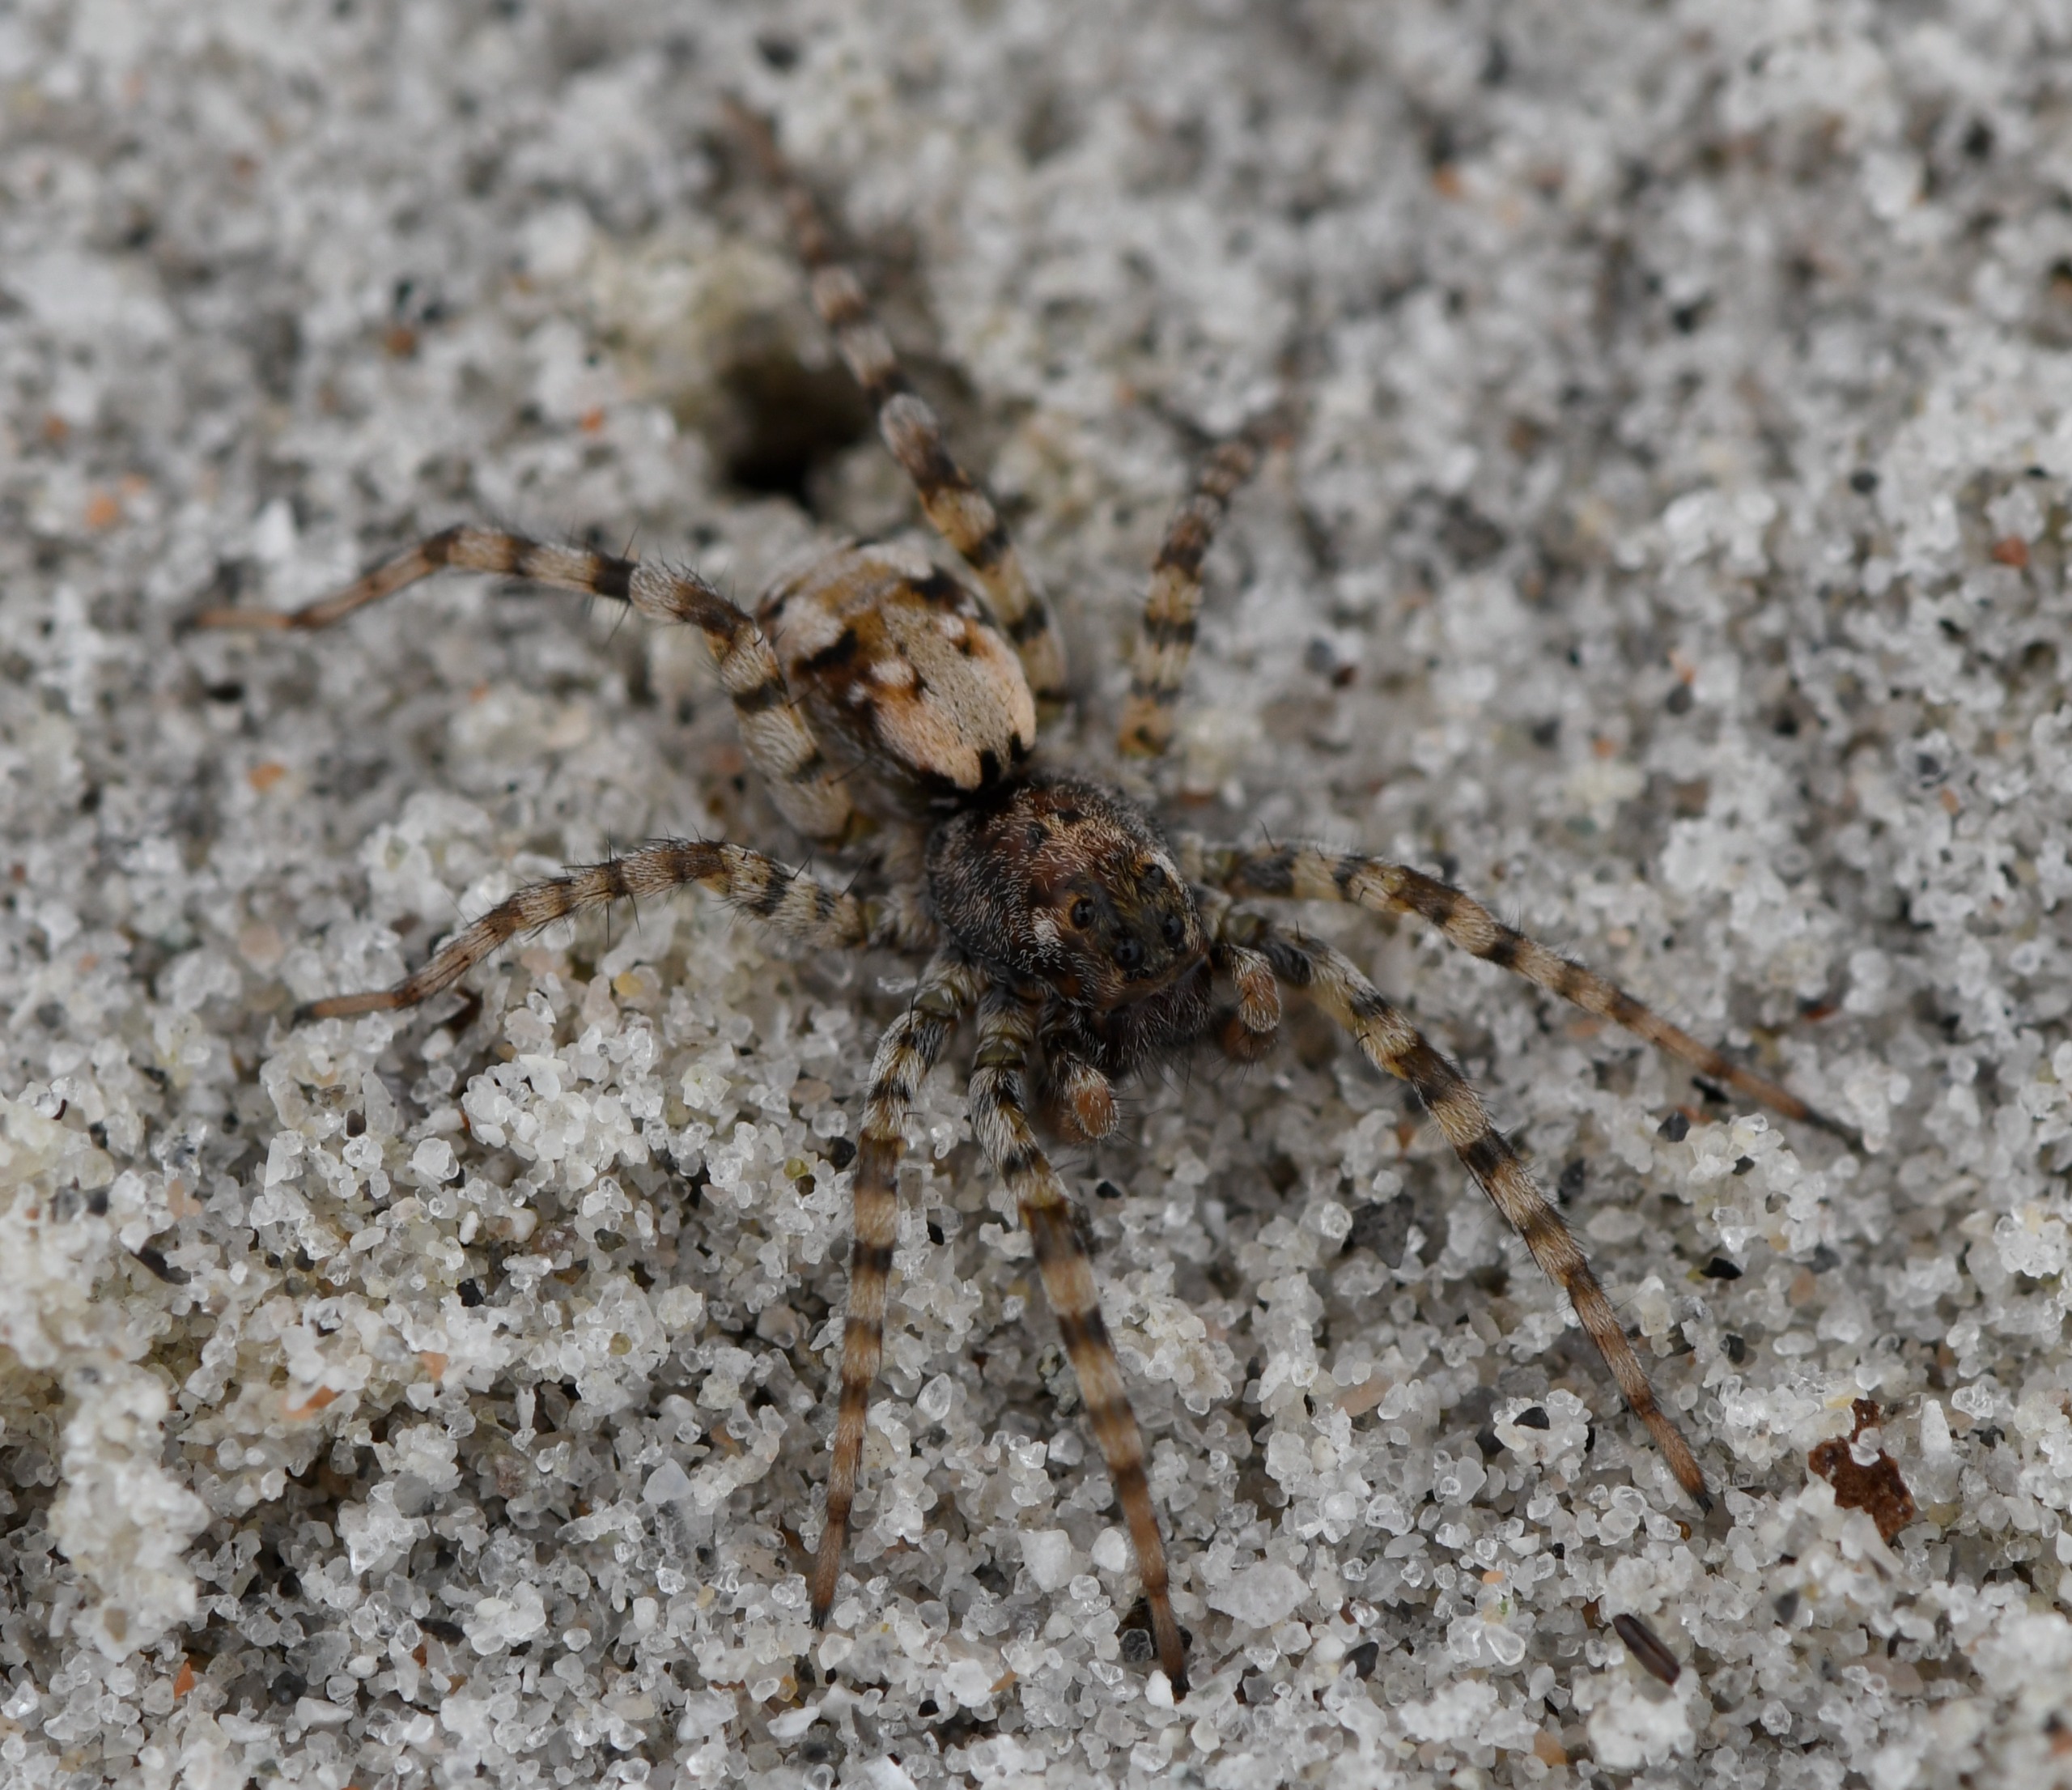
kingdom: Animalia
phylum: Arthropoda
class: Arachnida
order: Araneae
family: Lycosidae
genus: Arctosa
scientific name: Arctosa perita
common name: Klitgraveedderkop
